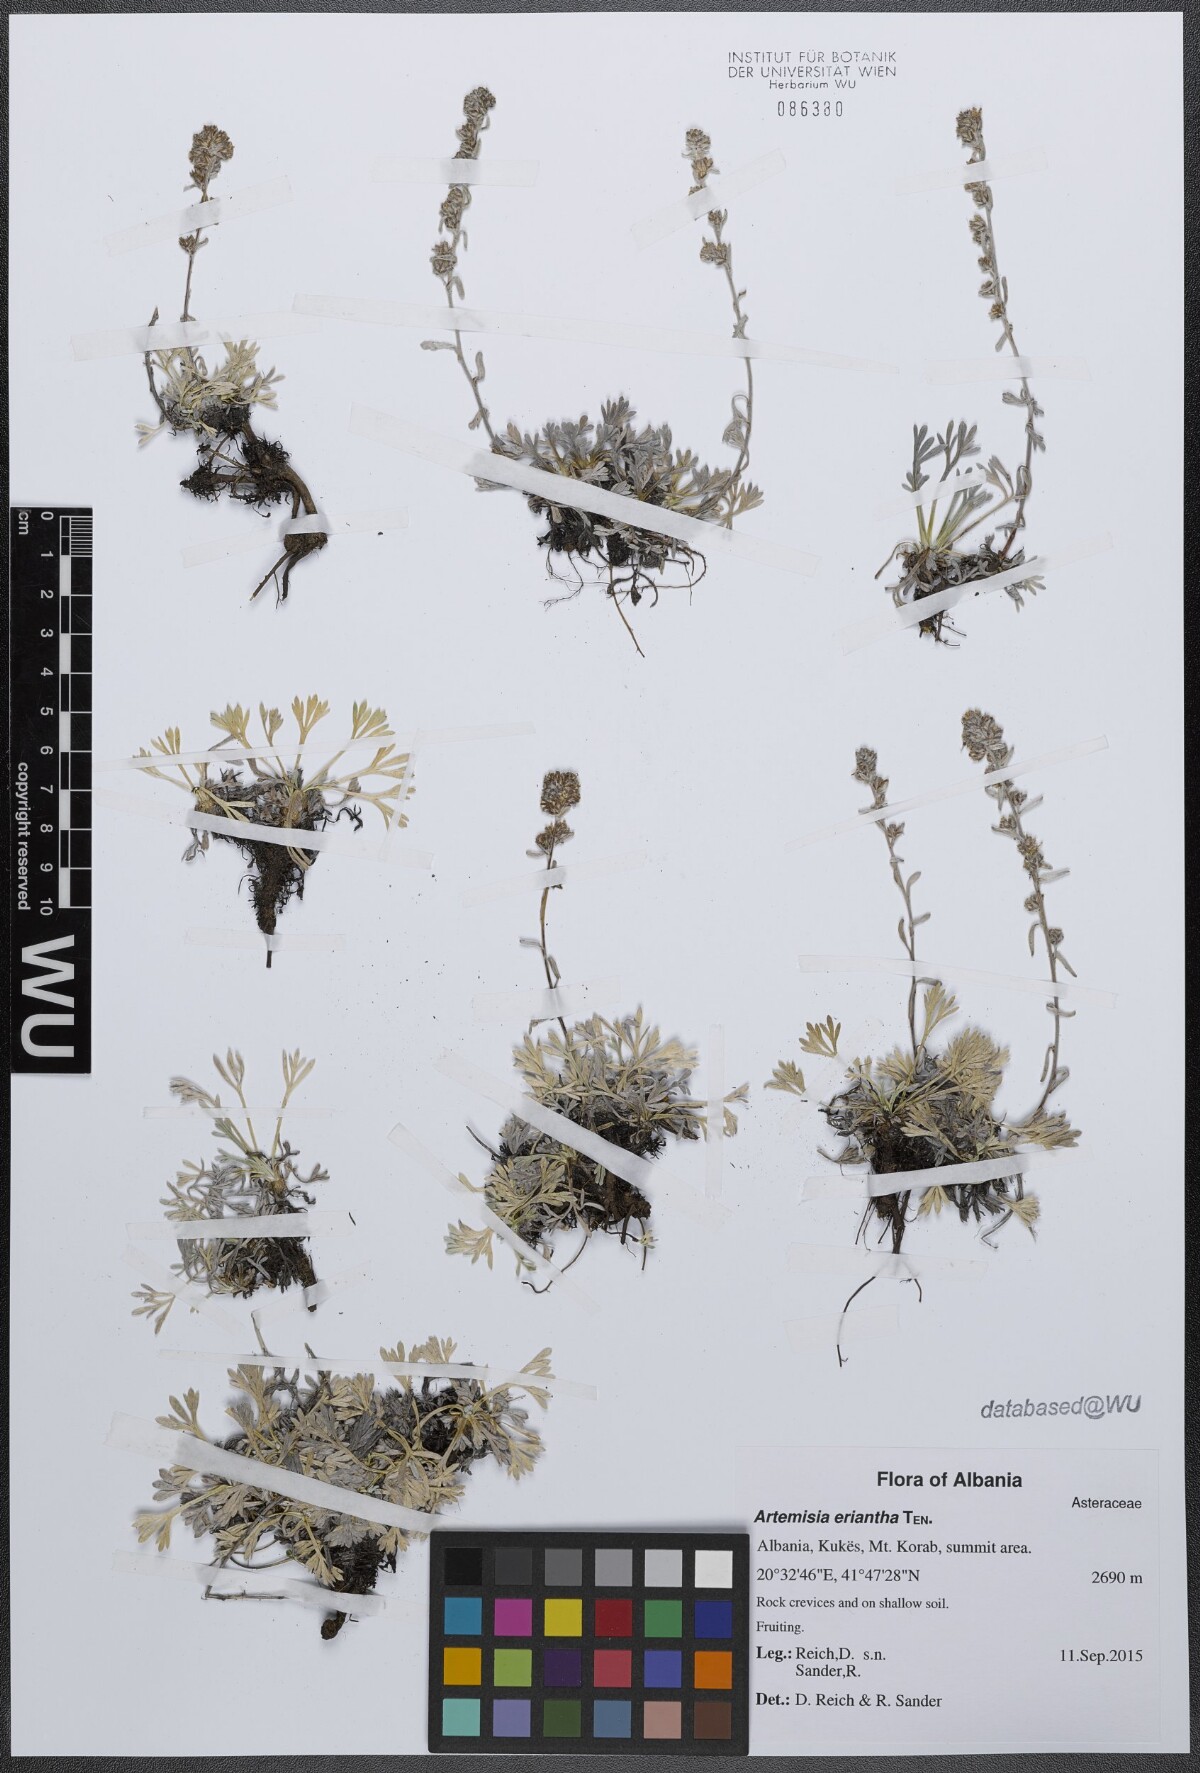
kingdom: Plantae
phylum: Tracheophyta
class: Magnoliopsida
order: Asterales
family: Asteraceae
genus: Artemisia
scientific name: Artemisia eriantha
